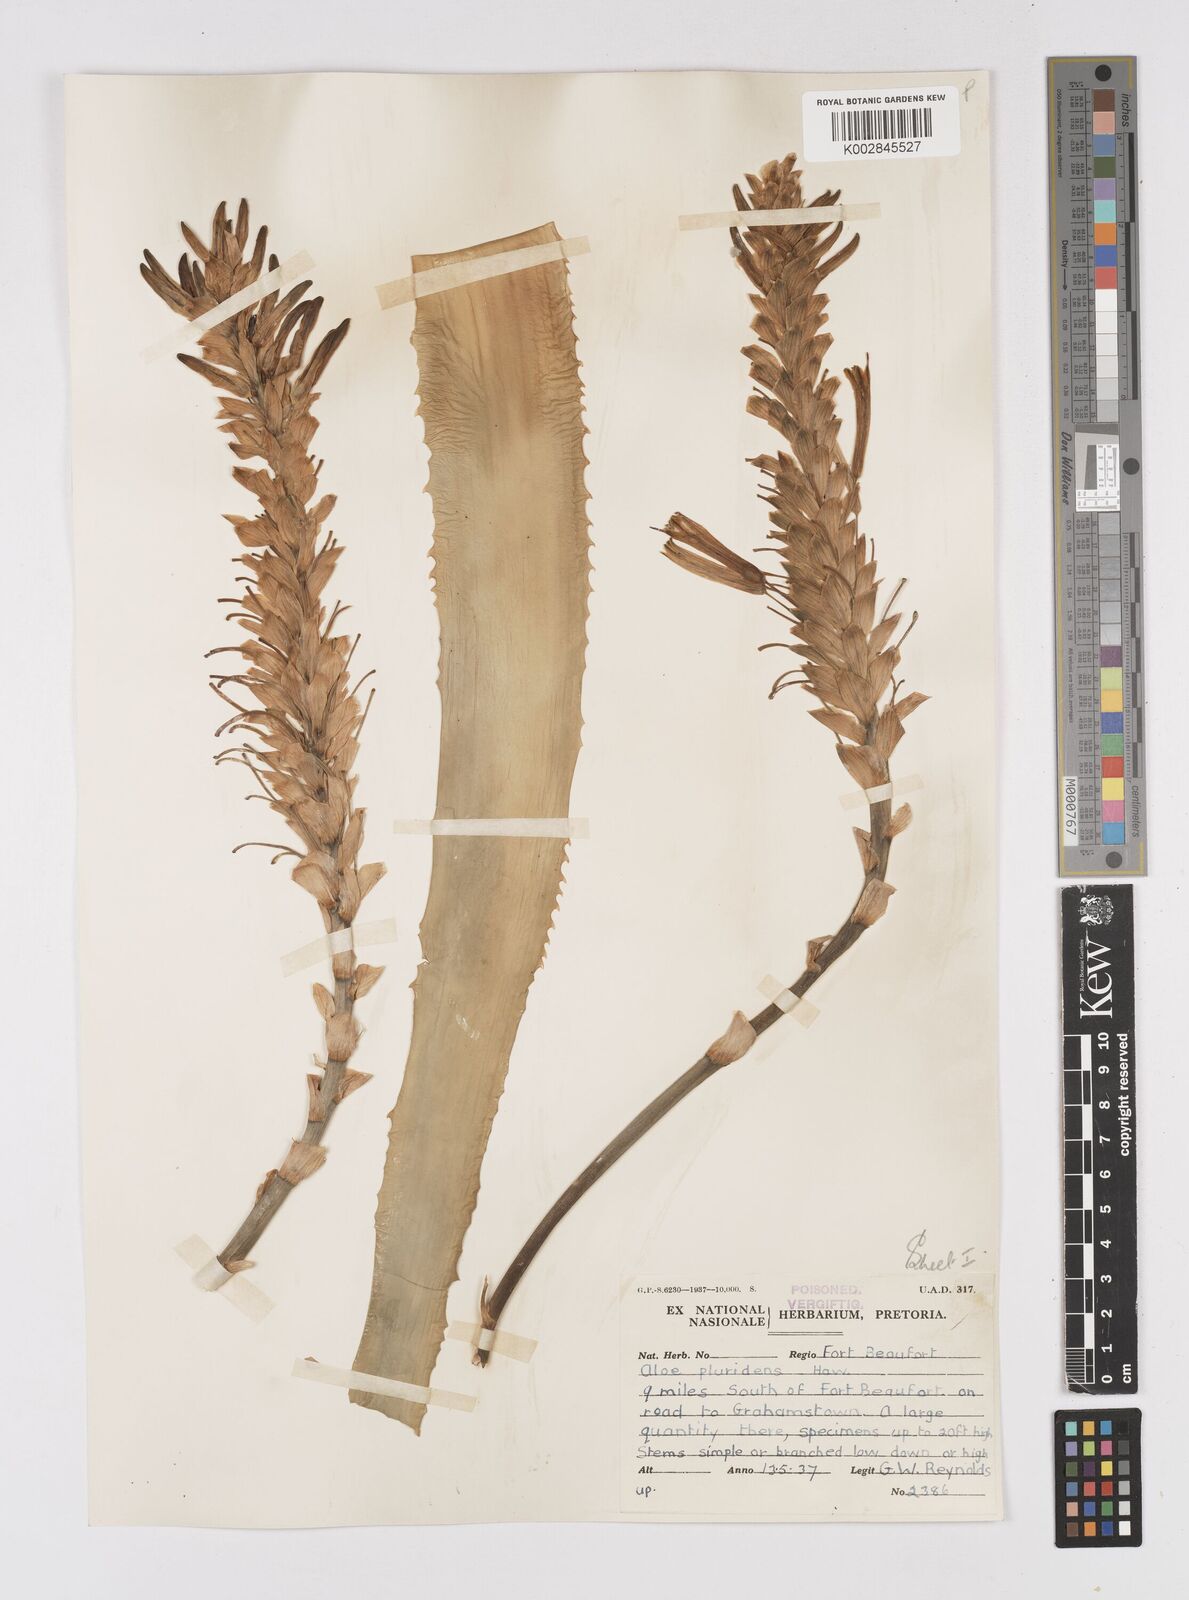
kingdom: Plantae
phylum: Tracheophyta
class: Liliopsida
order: Asparagales
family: Asphodelaceae
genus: Aloe
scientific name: Aloe pluridens
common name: French aloe
